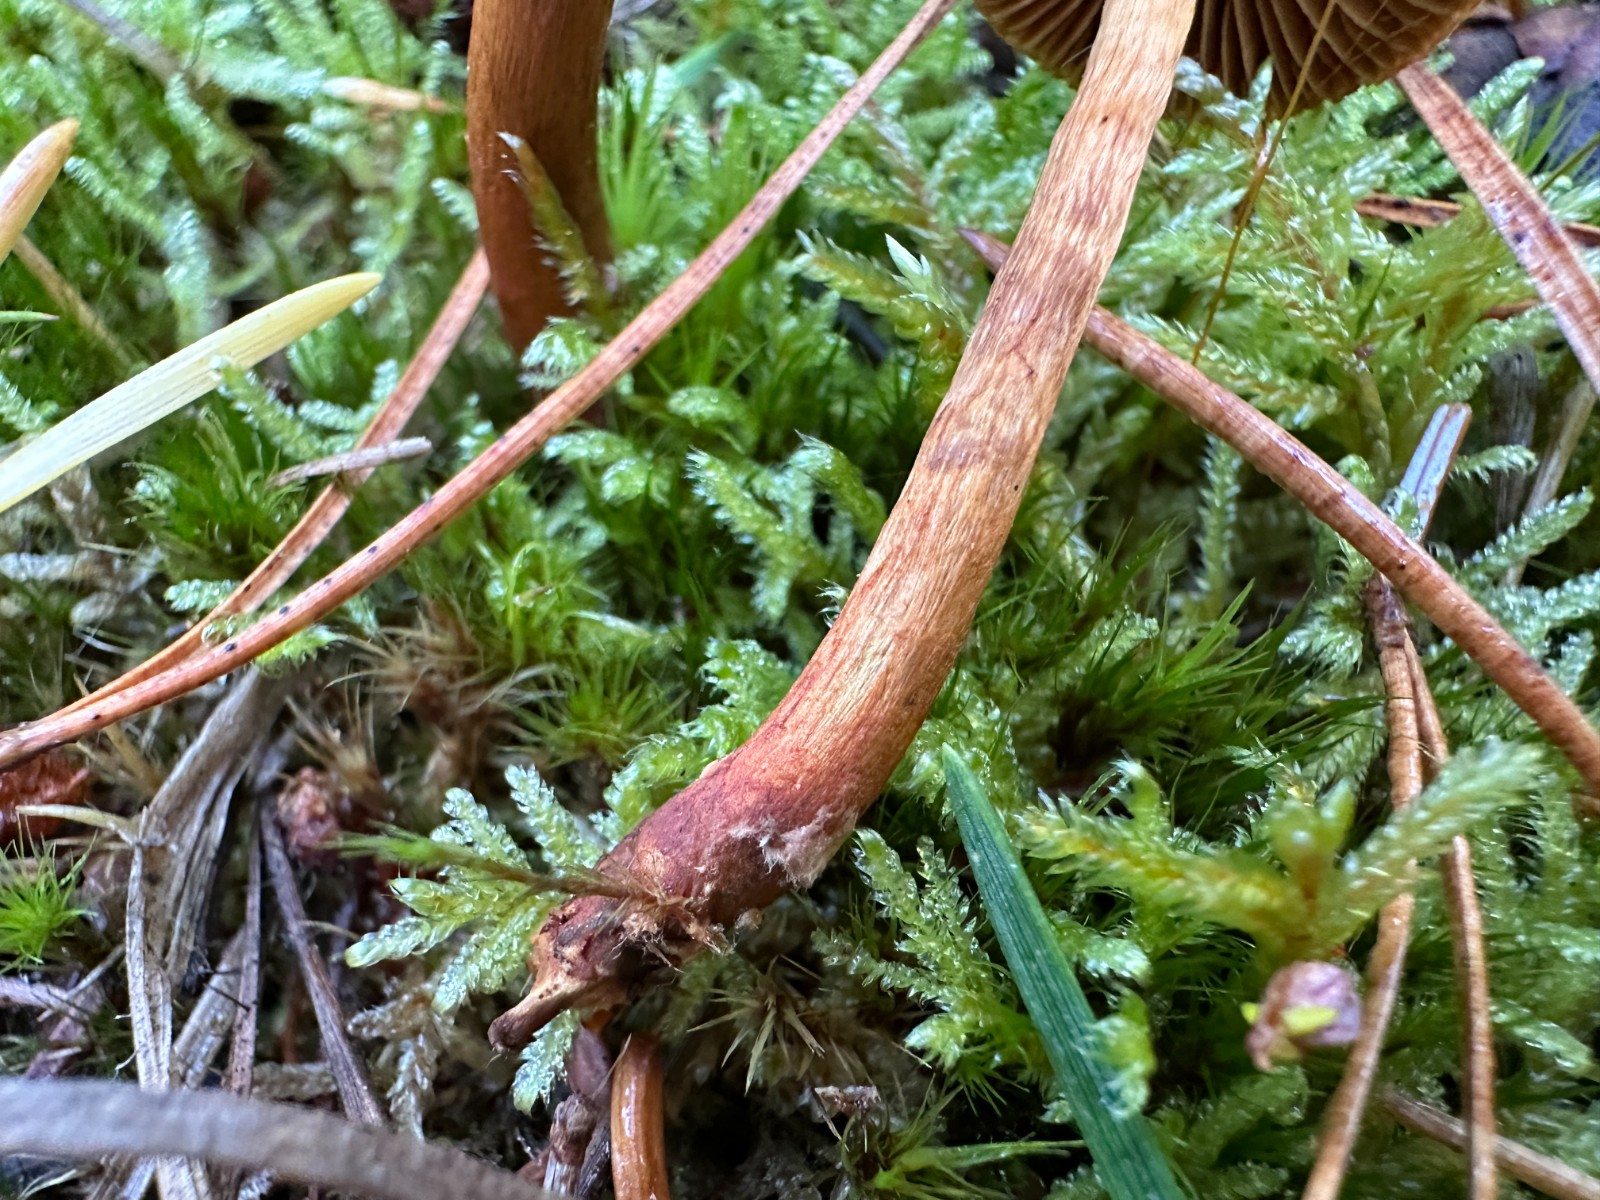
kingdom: Fungi
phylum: Basidiomycota
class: Agaricomycetes
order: Agaricales
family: Cortinariaceae
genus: Cortinarius
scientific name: Cortinarius bataillei
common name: orangefodet slørhat
